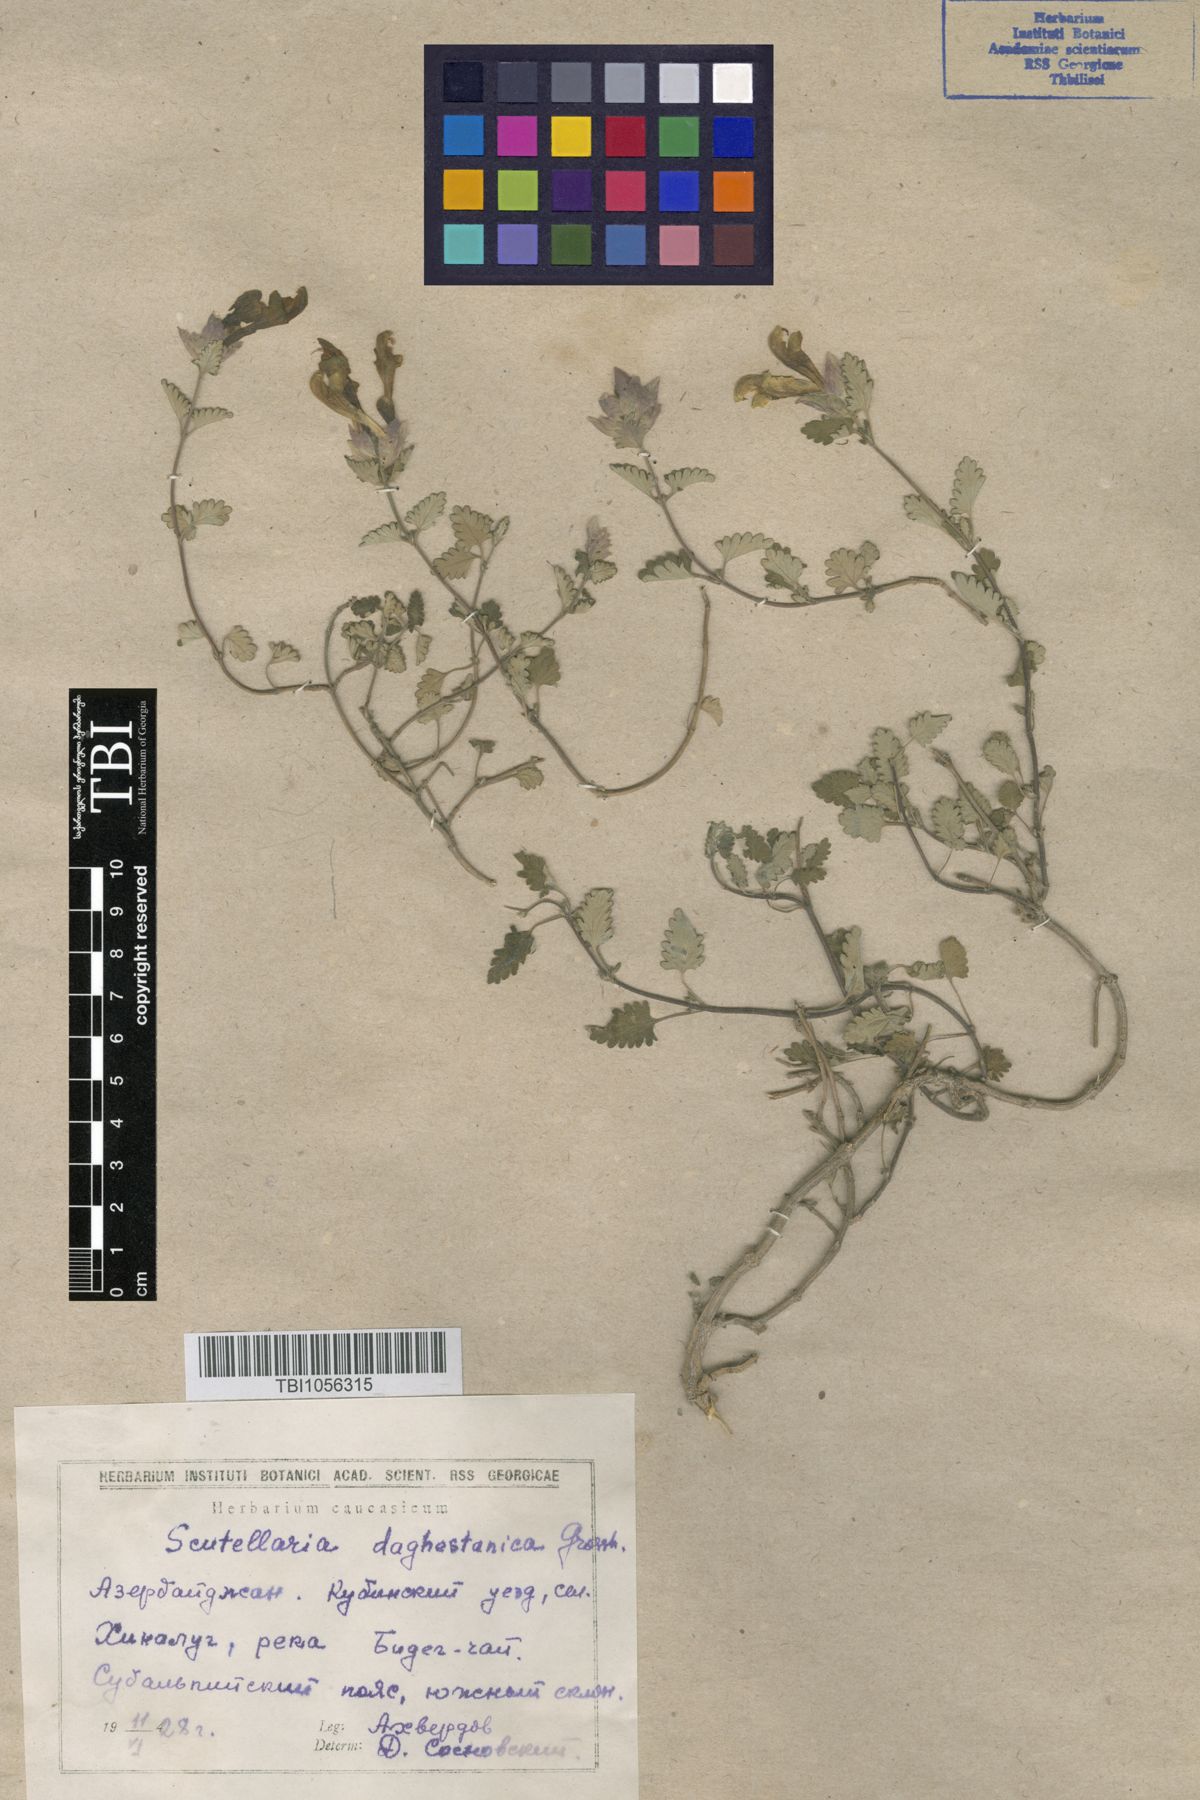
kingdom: Plantae
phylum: Tracheophyta
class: Magnoliopsida
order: Lamiales
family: Lamiaceae
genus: Scutellaria
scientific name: Scutellaria daghestanica
